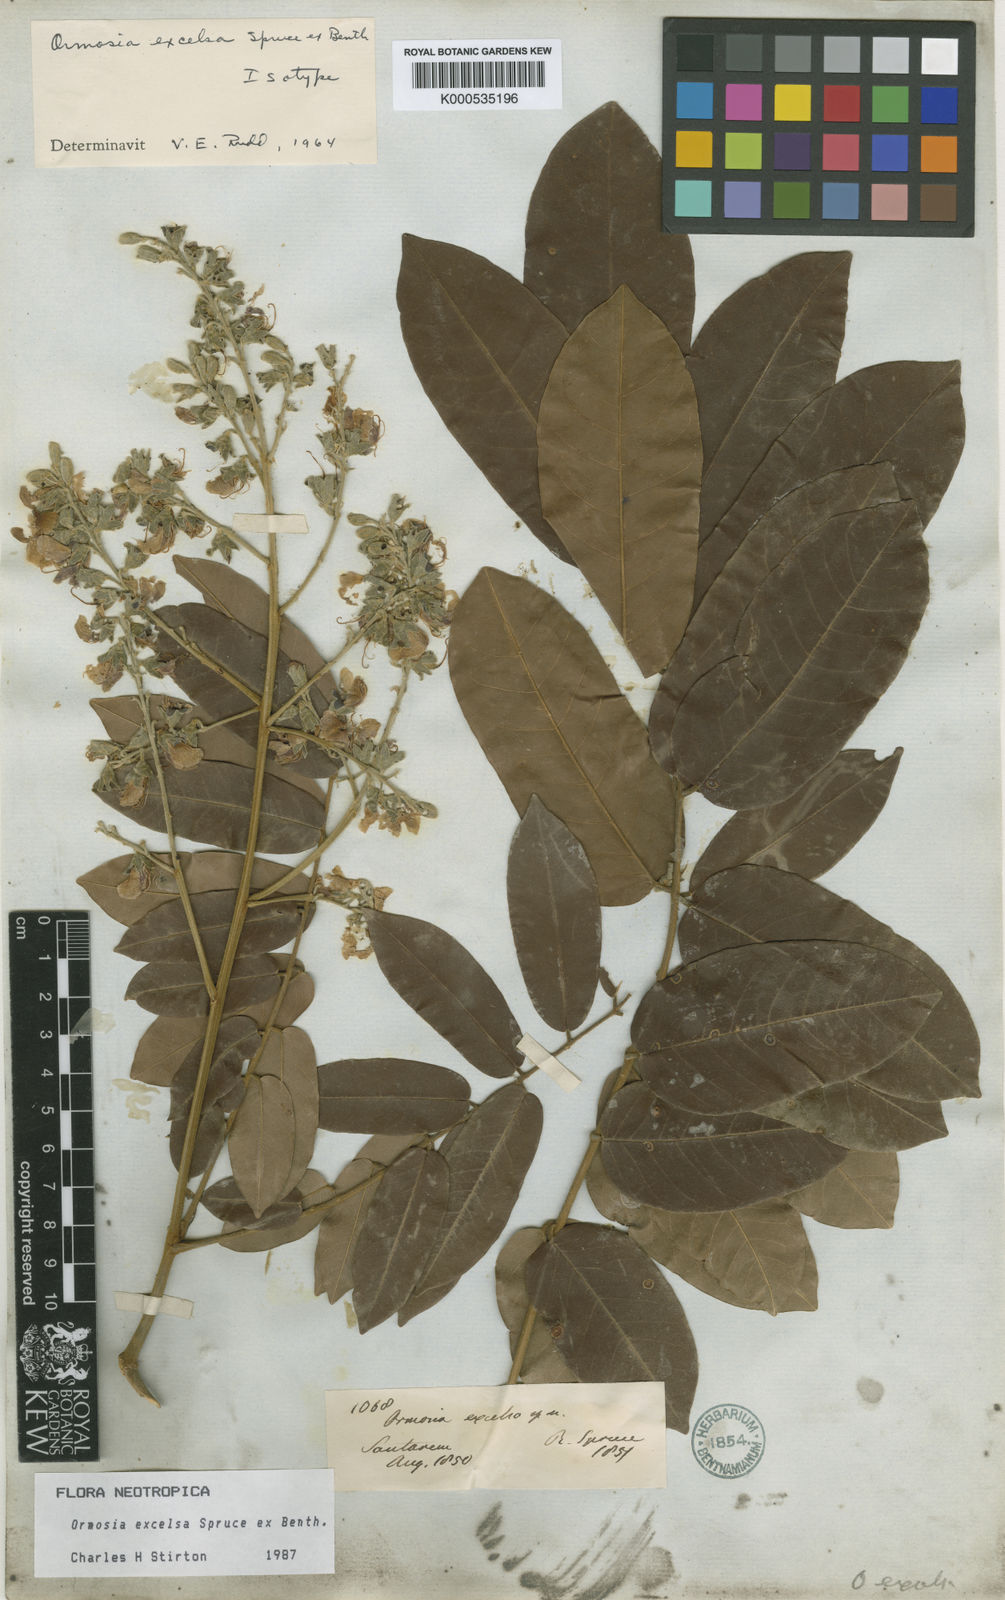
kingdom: Plantae
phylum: Tracheophyta
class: Magnoliopsida
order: Fabales
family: Fabaceae
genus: Ormosia
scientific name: Ormosia excelsa
